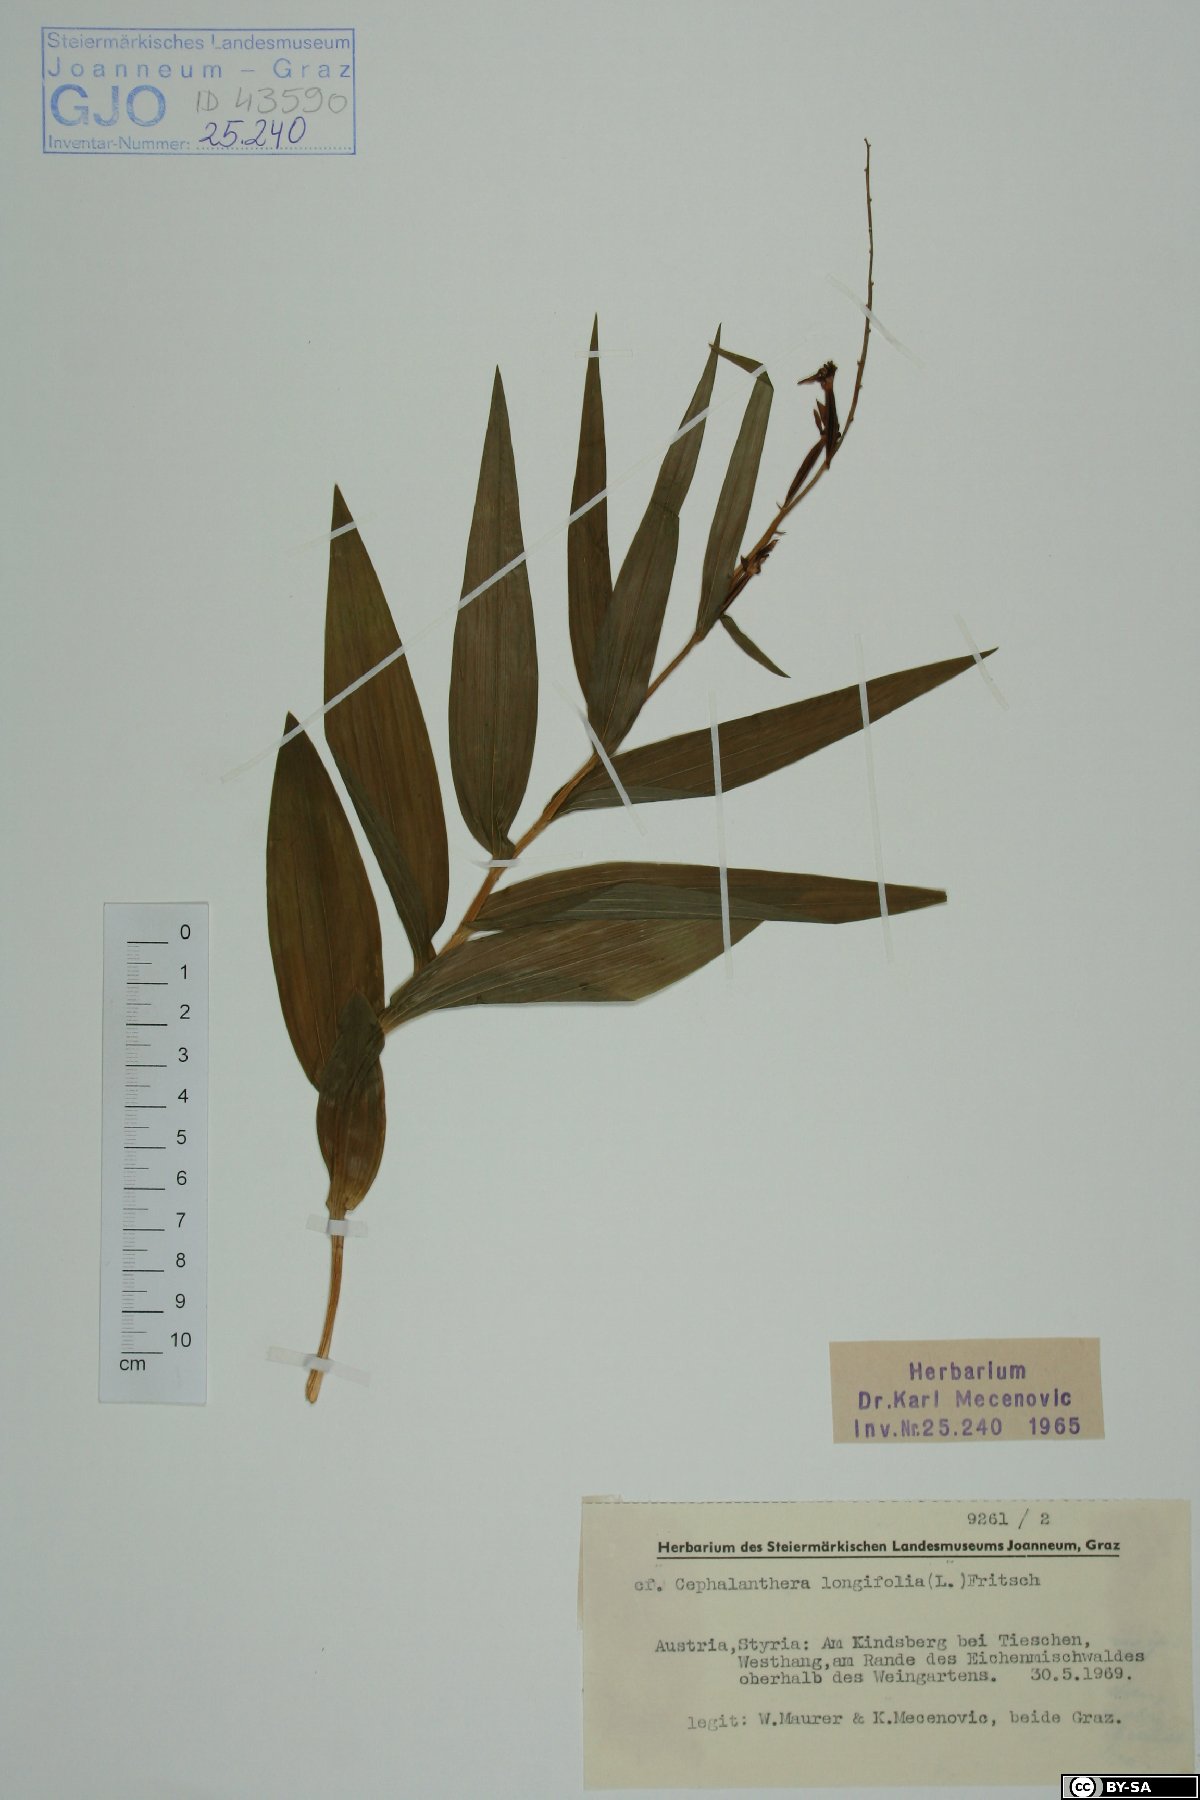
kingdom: Plantae
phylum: Tracheophyta
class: Liliopsida
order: Asparagales
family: Orchidaceae
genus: Cephalanthera
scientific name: Cephalanthera longifolia
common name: Narrow-leaved helleborine
